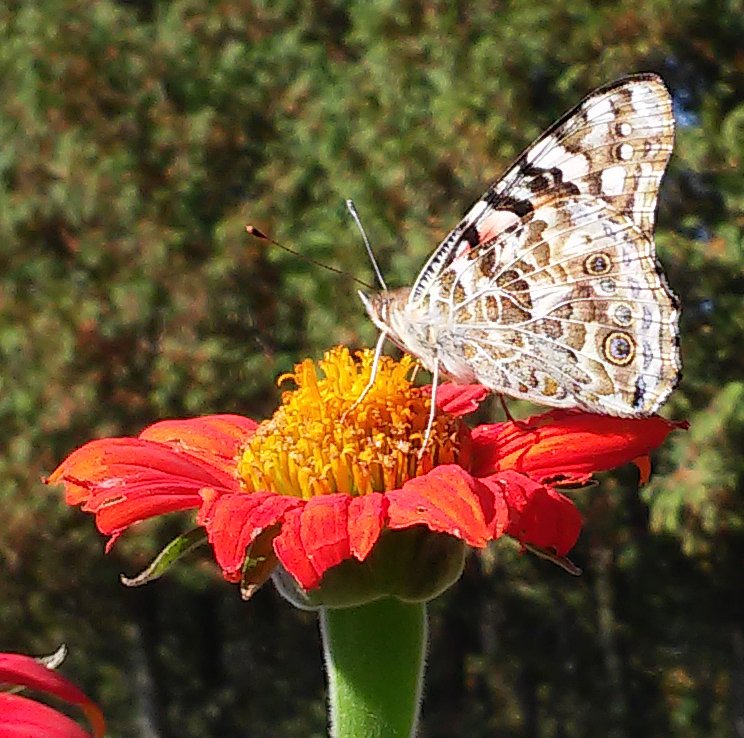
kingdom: Animalia
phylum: Arthropoda
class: Insecta
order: Lepidoptera
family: Nymphalidae
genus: Vanessa
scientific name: Vanessa cardui
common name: Painted Lady
